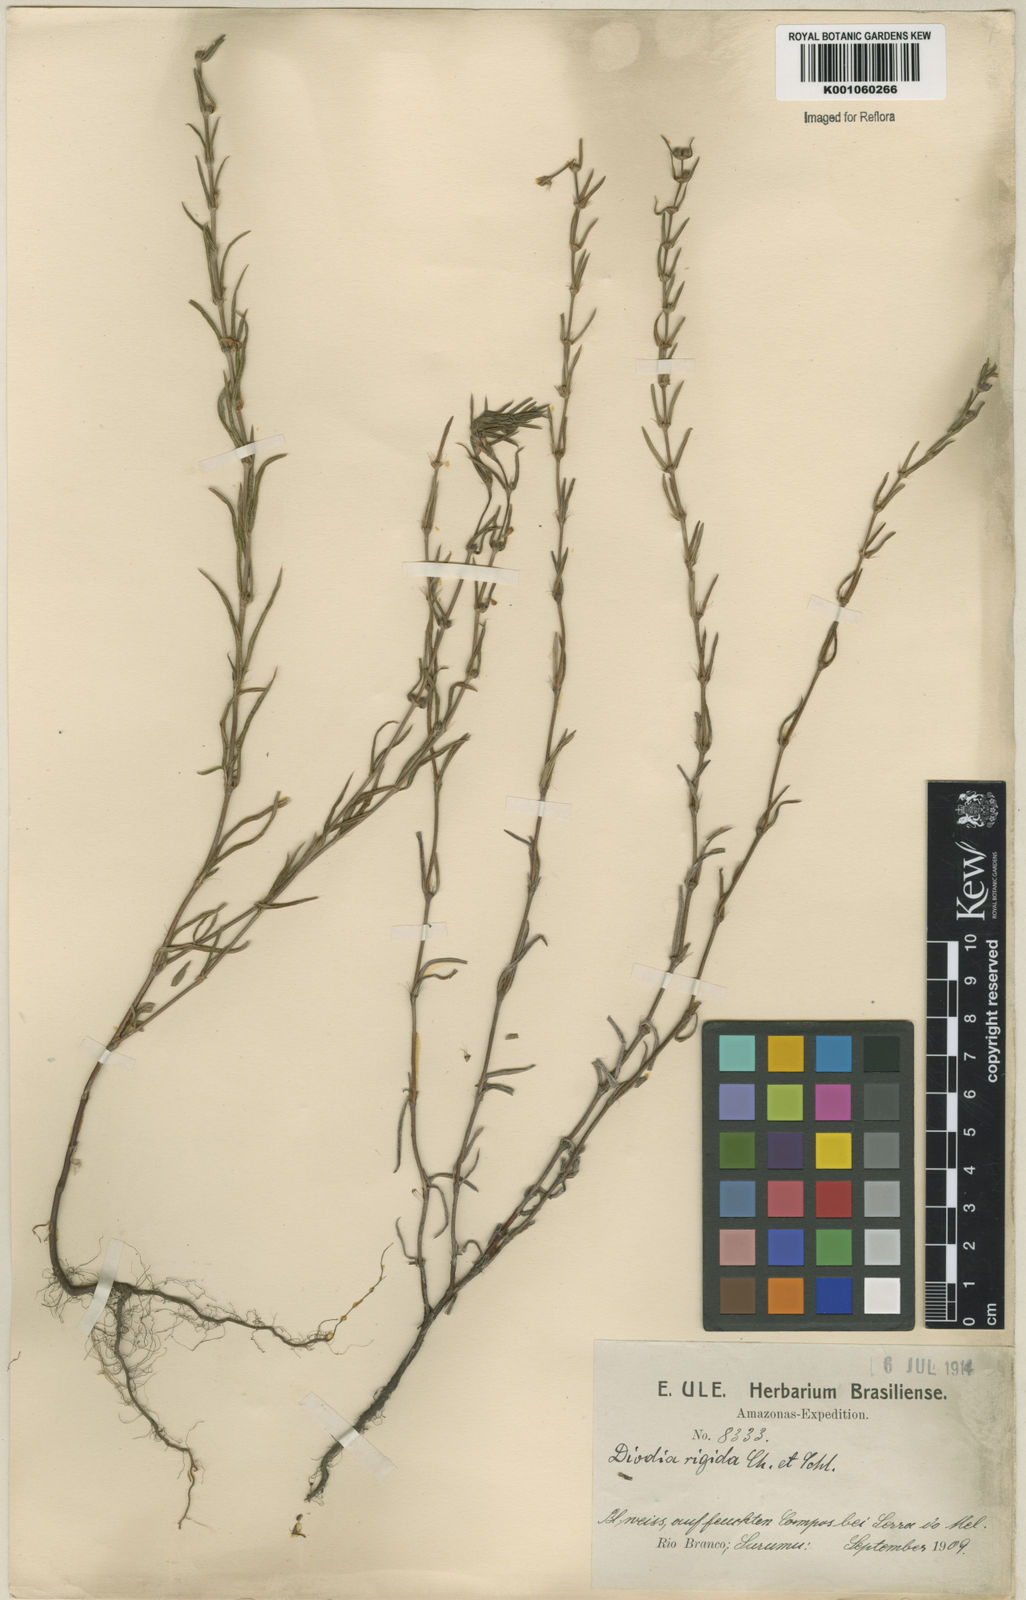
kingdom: Plantae
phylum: Tracheophyta
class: Magnoliopsida
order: Gentianales
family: Rubiaceae
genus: Hexasepalum
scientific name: Hexasepalum apiculatum
